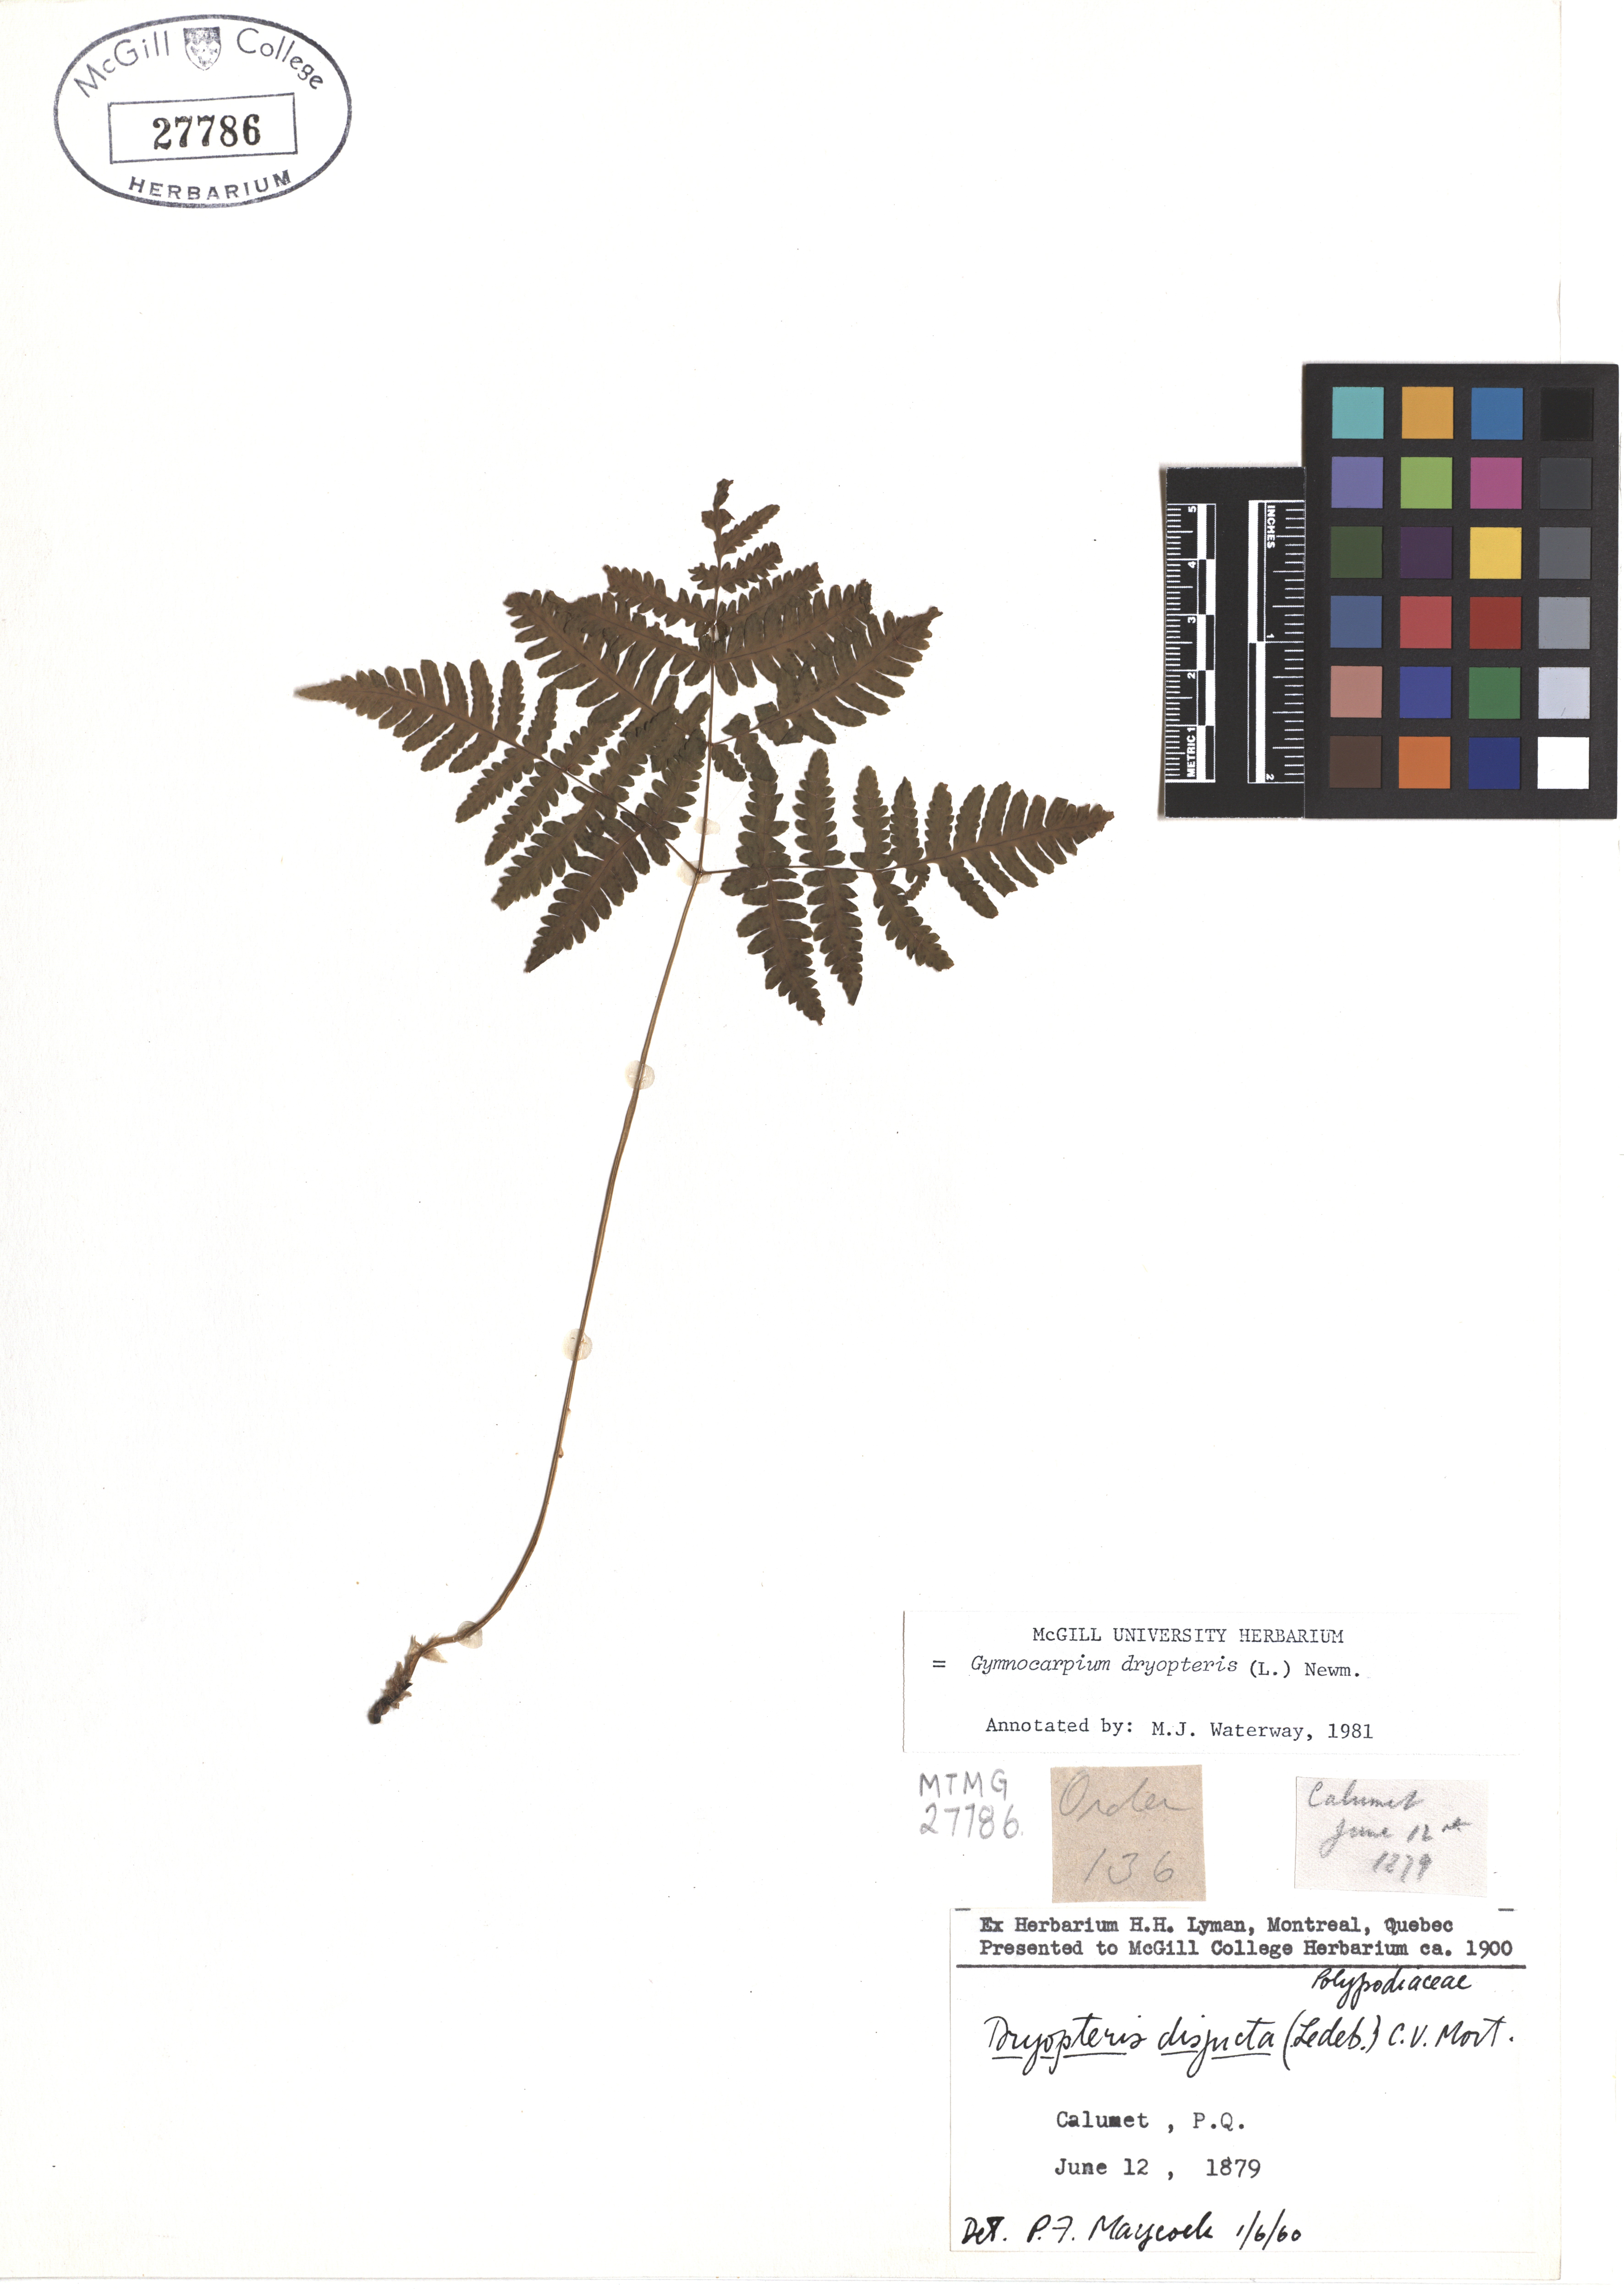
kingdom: Plantae
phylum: Tracheophyta
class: Polypodiopsida
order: Polypodiales
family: Cystopteridaceae
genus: Gymnocarpium
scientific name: Gymnocarpium dryopteris
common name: Oak fern
